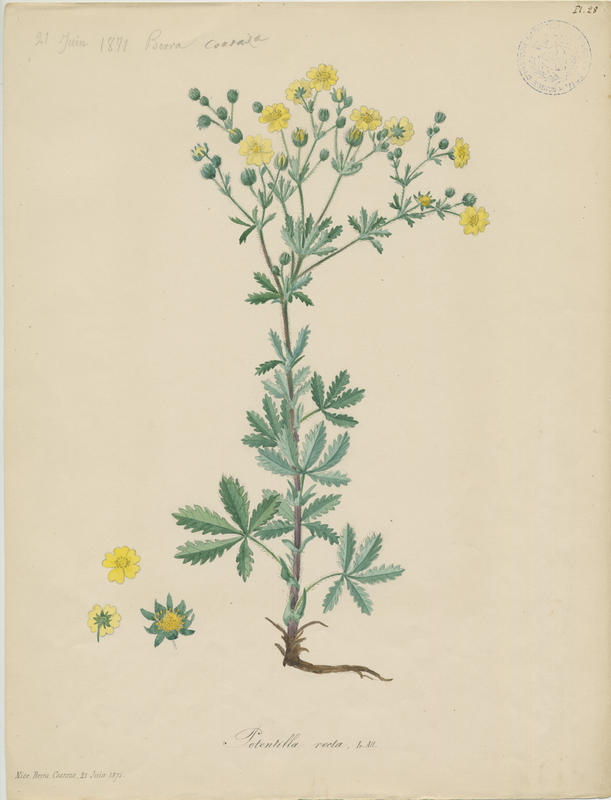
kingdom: Plantae
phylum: Tracheophyta
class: Magnoliopsida
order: Rosales
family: Rosaceae
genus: Potentilla
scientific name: Potentilla recta
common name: Sulphur cinquefoil
